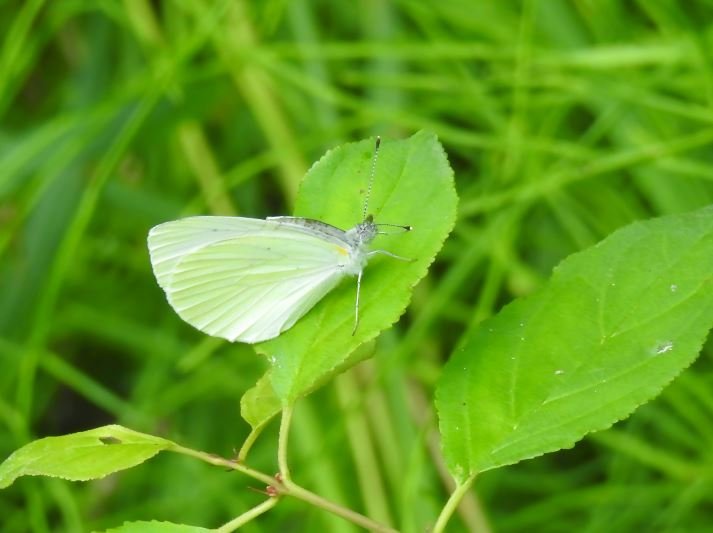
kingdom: Animalia
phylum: Arthropoda
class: Insecta
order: Lepidoptera
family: Pieridae
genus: Pieris
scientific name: Pieris oleracea
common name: Mustard White
